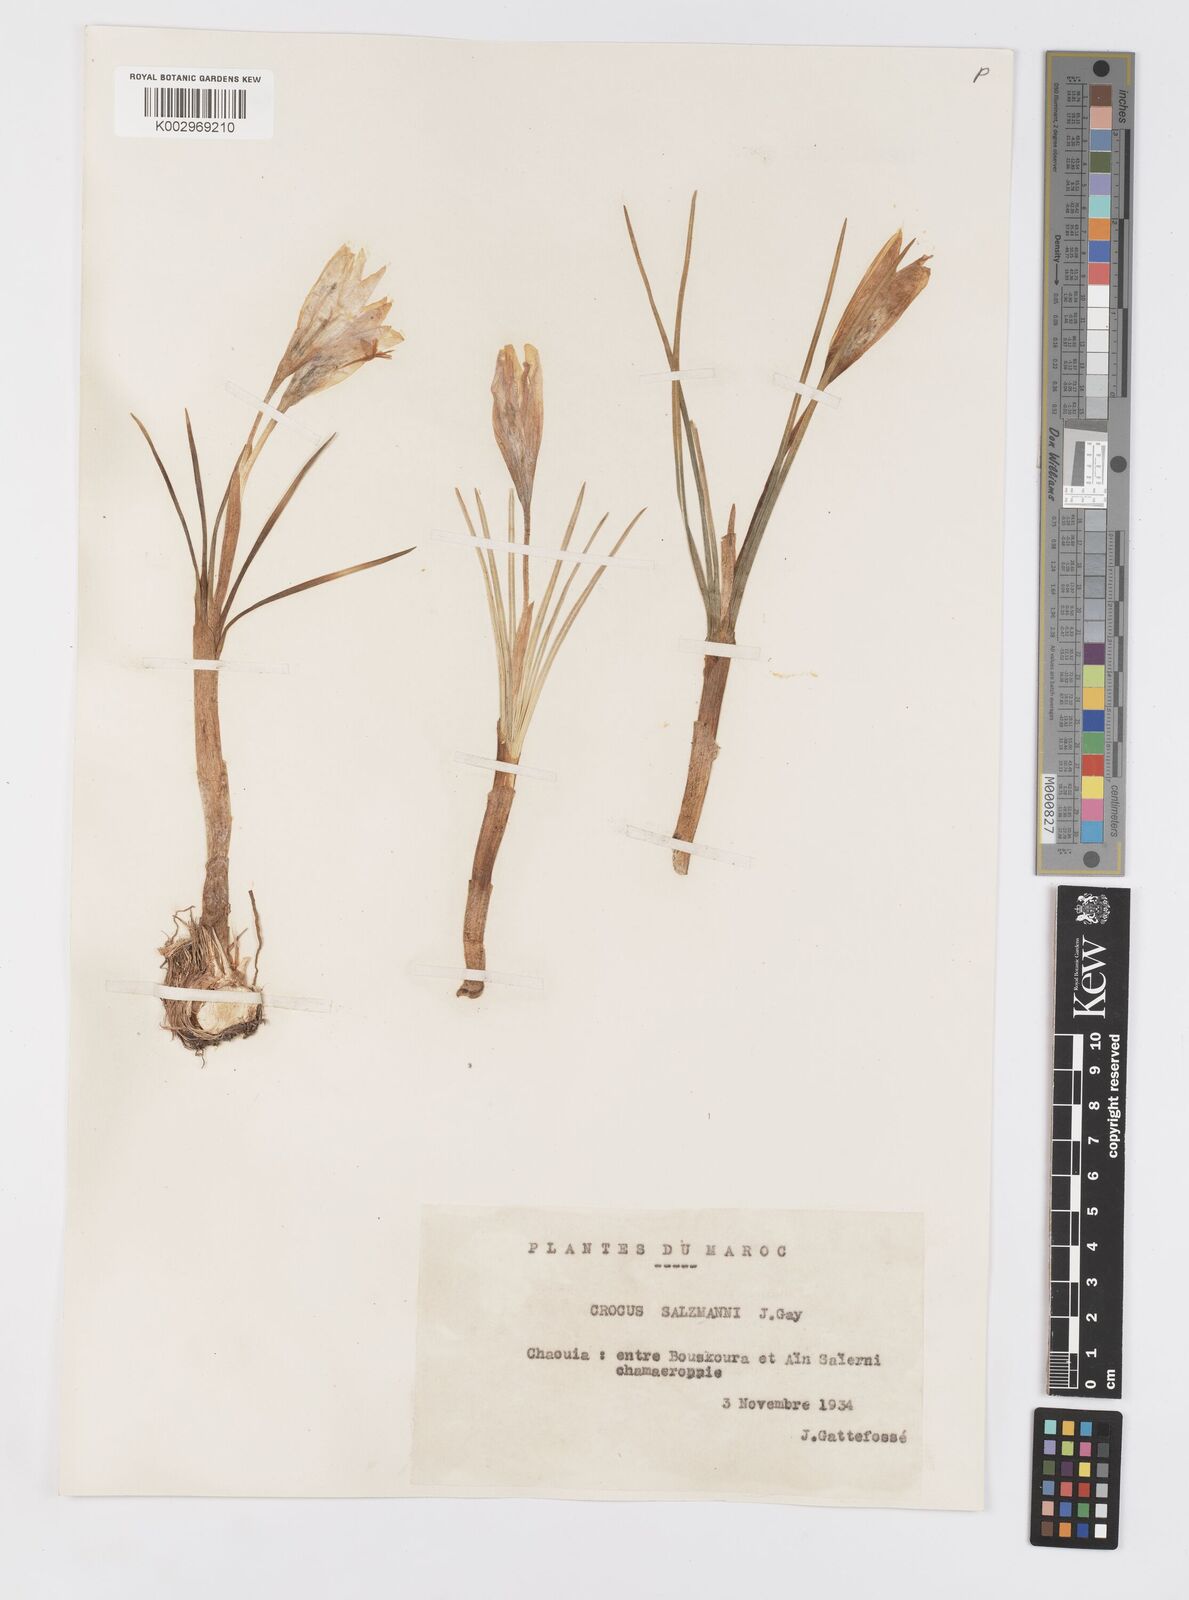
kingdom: Plantae
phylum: Tracheophyta
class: Liliopsida
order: Asparagales
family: Iridaceae
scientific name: Iridaceae
